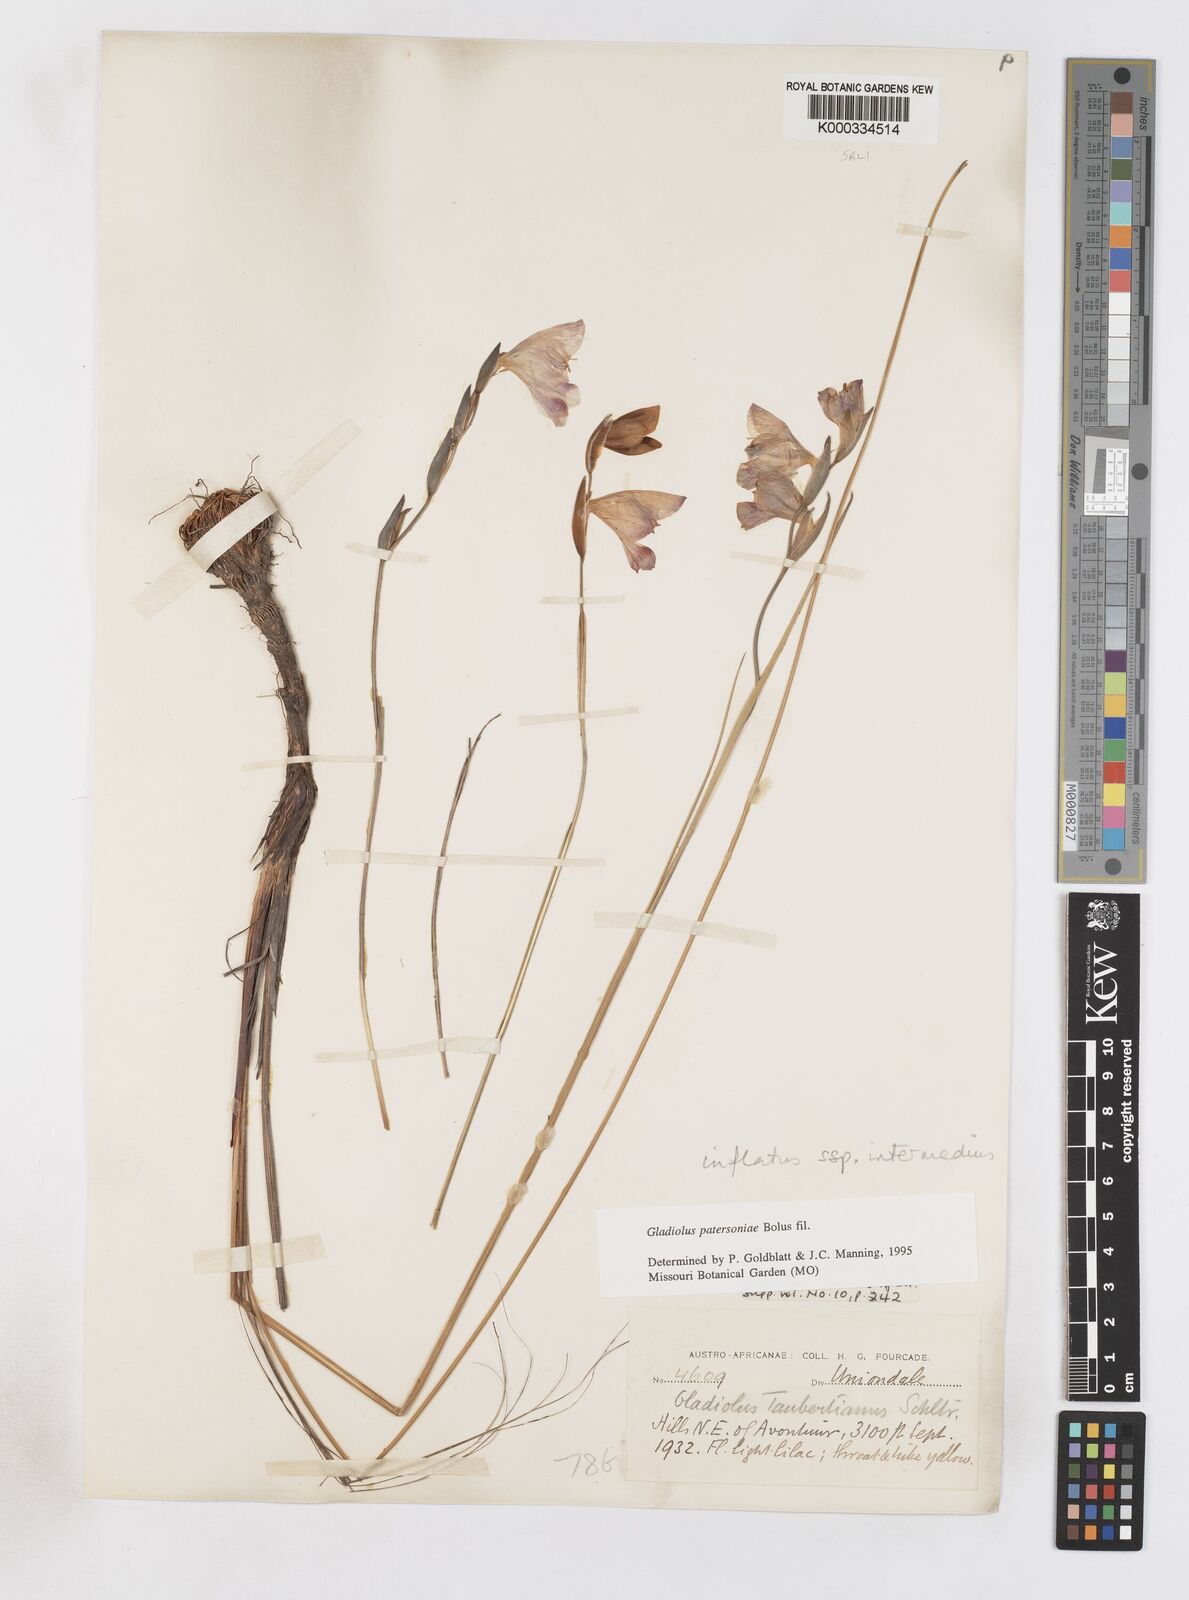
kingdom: Plantae
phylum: Tracheophyta
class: Liliopsida
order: Asparagales
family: Iridaceae
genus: Gladiolus
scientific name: Gladiolus patersoniae
